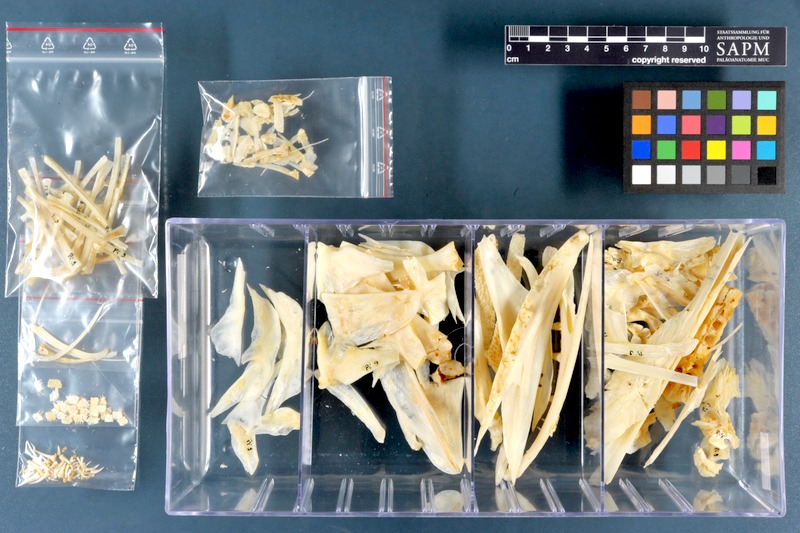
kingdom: Animalia
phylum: Chordata
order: Esociformes
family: Esocidae
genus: Esox
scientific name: Esox lucius
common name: Northern pike
